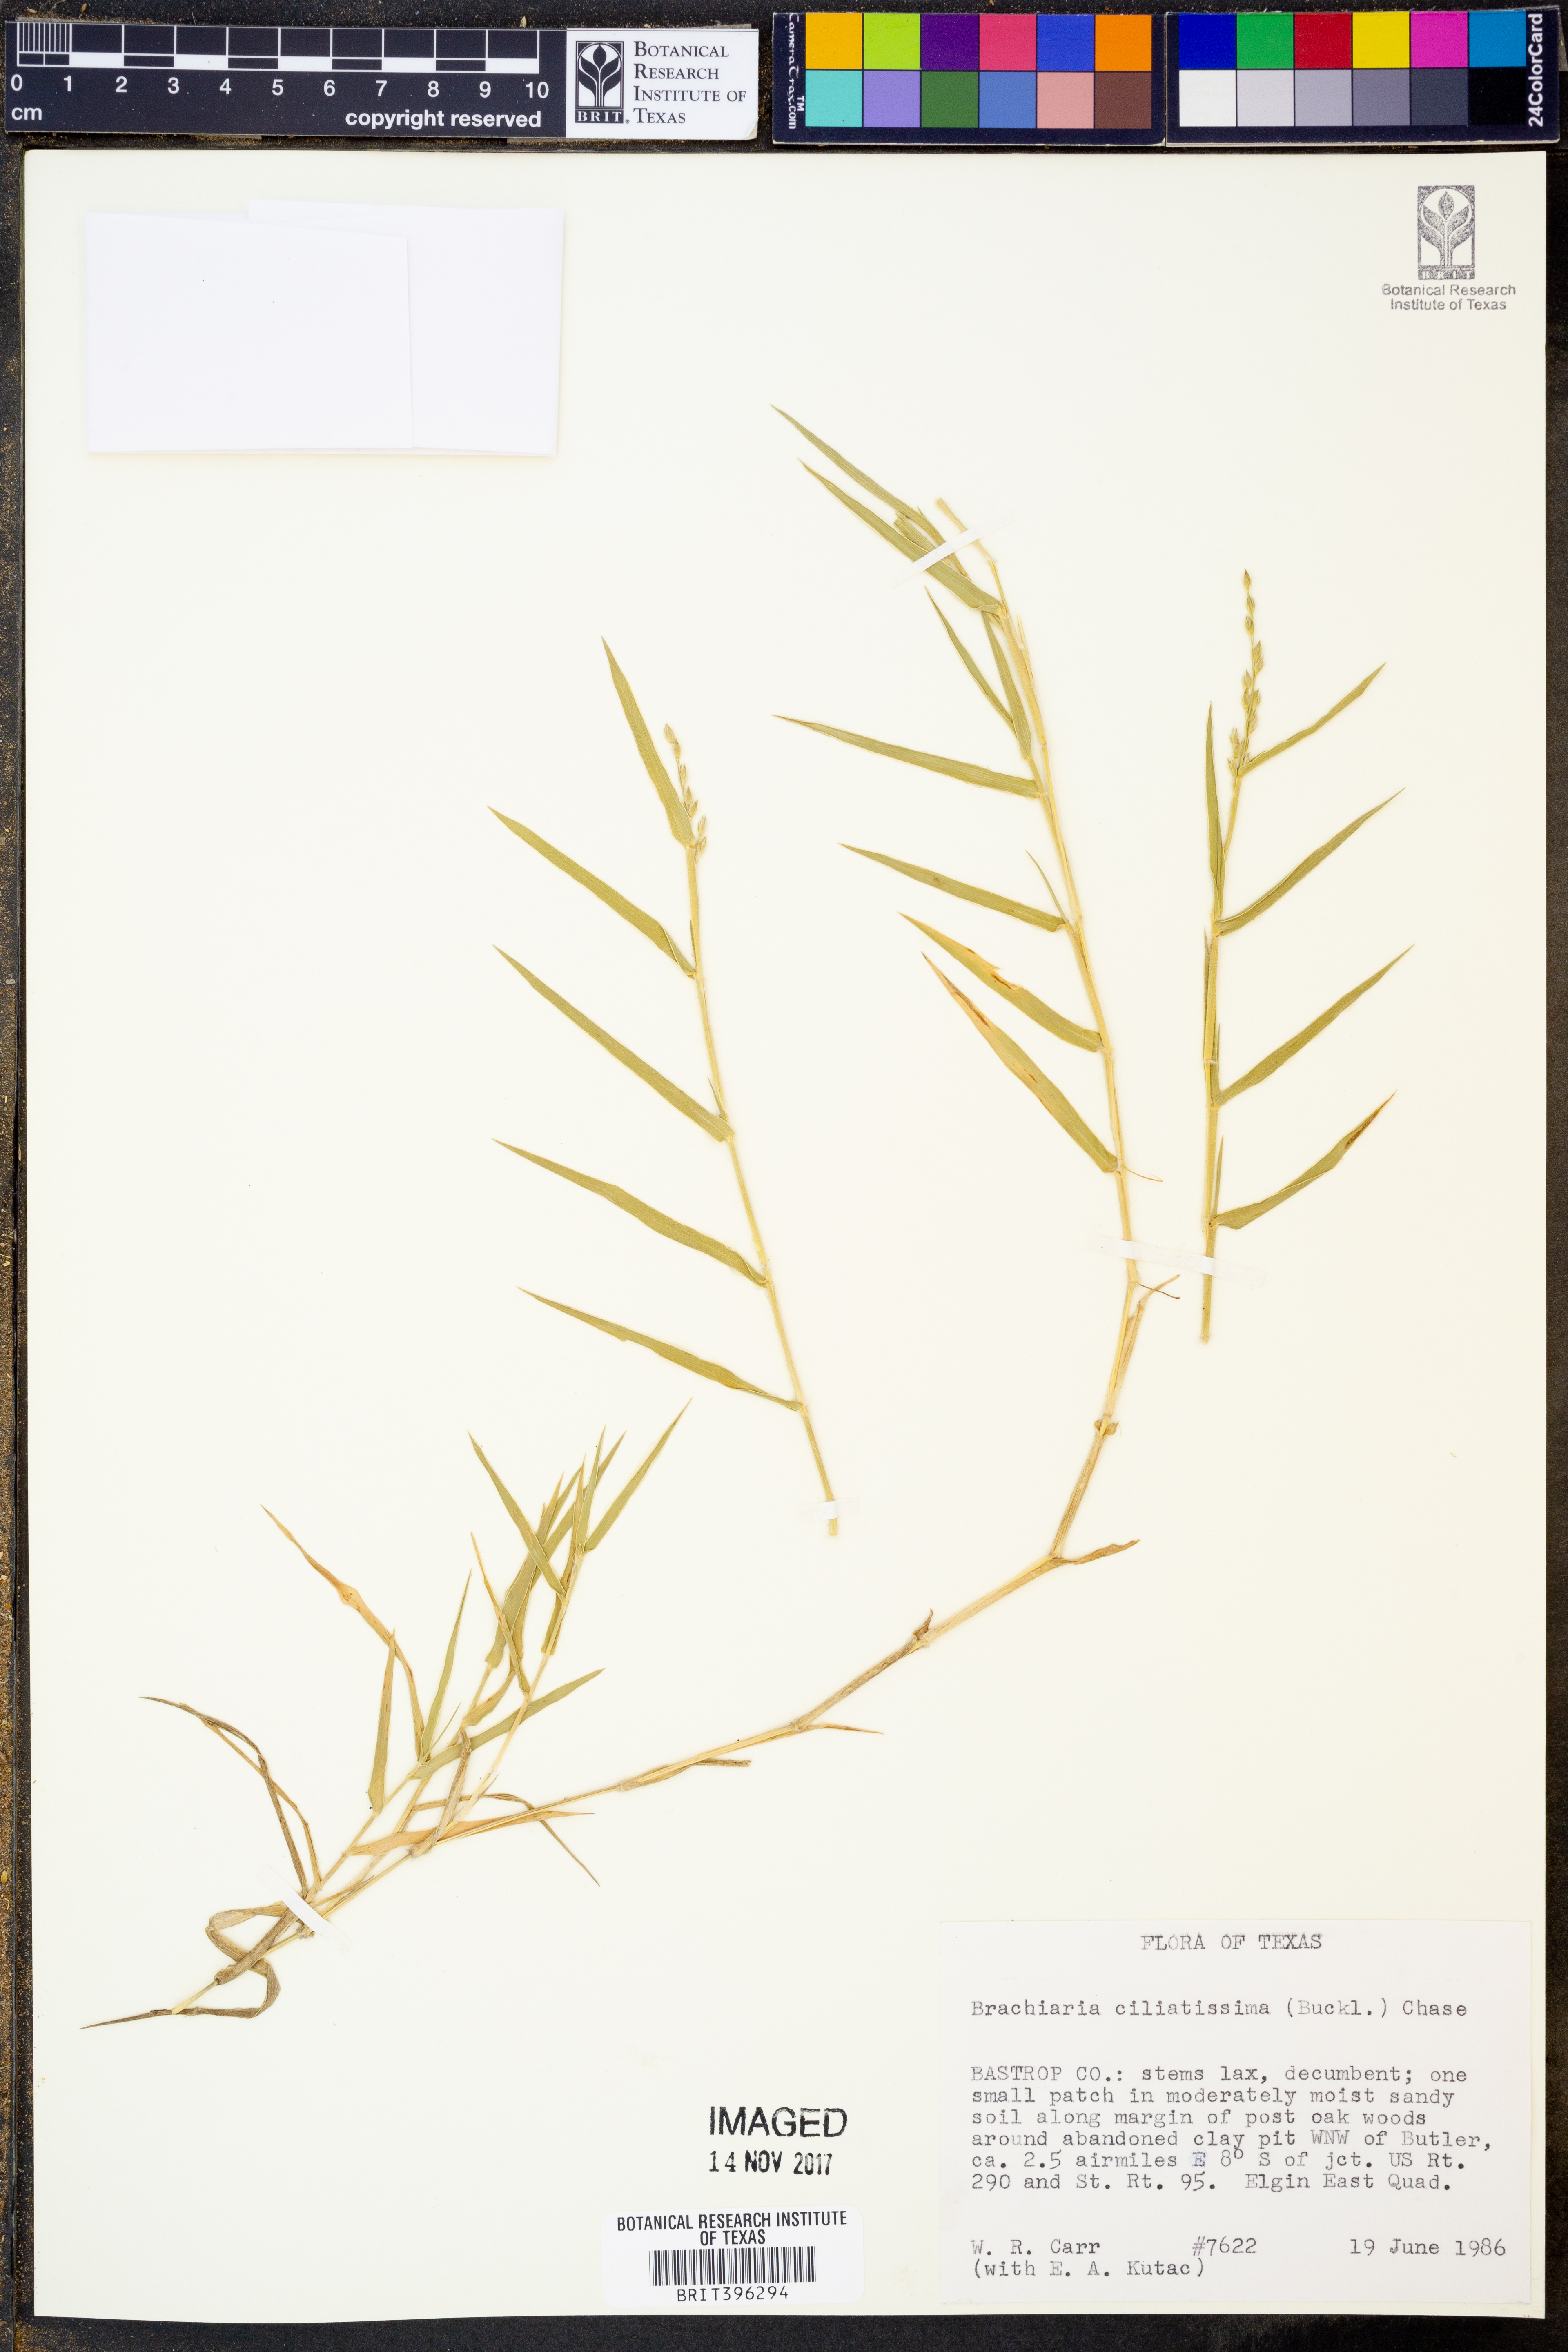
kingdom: Plantae
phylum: Tracheophyta
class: Liliopsida
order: Poales
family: Poaceae
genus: Urochloa
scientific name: Urochloa ciliatissima
